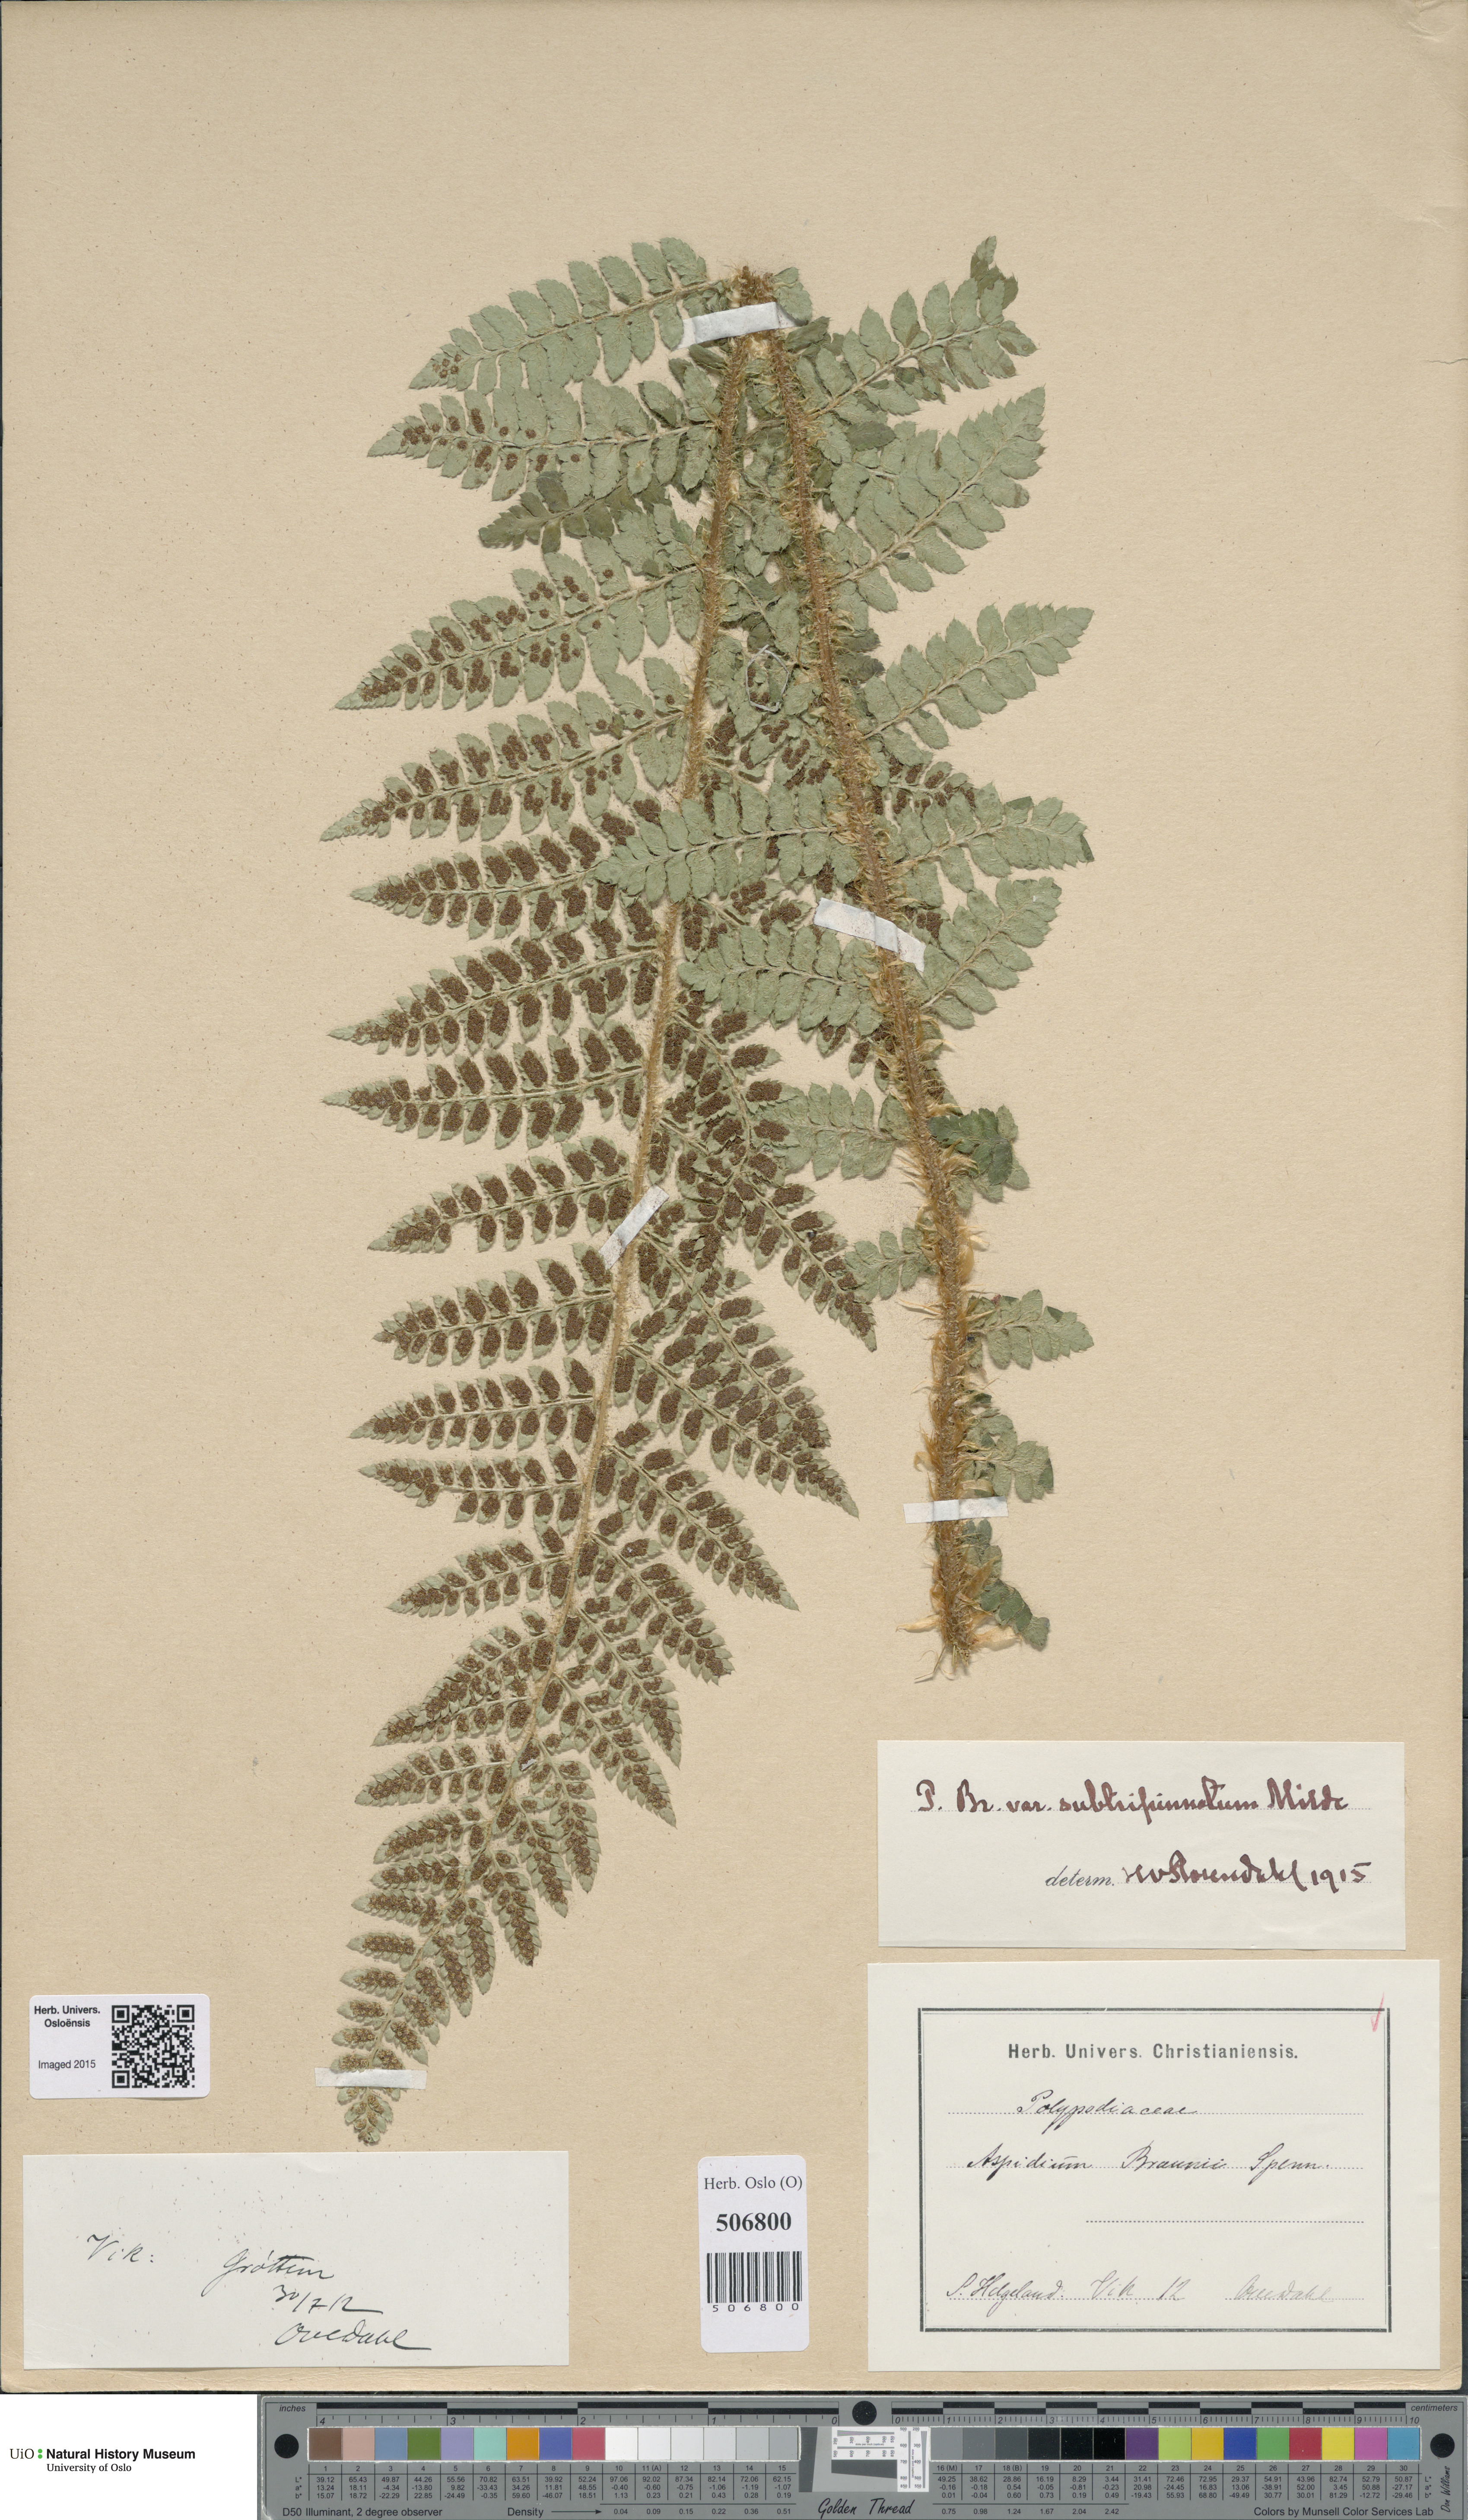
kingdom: Plantae
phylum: Tracheophyta
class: Polypodiopsida
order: Polypodiales
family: Dryopteridaceae
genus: Polystichum
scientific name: Polystichum braunii
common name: Braun's holly fern
